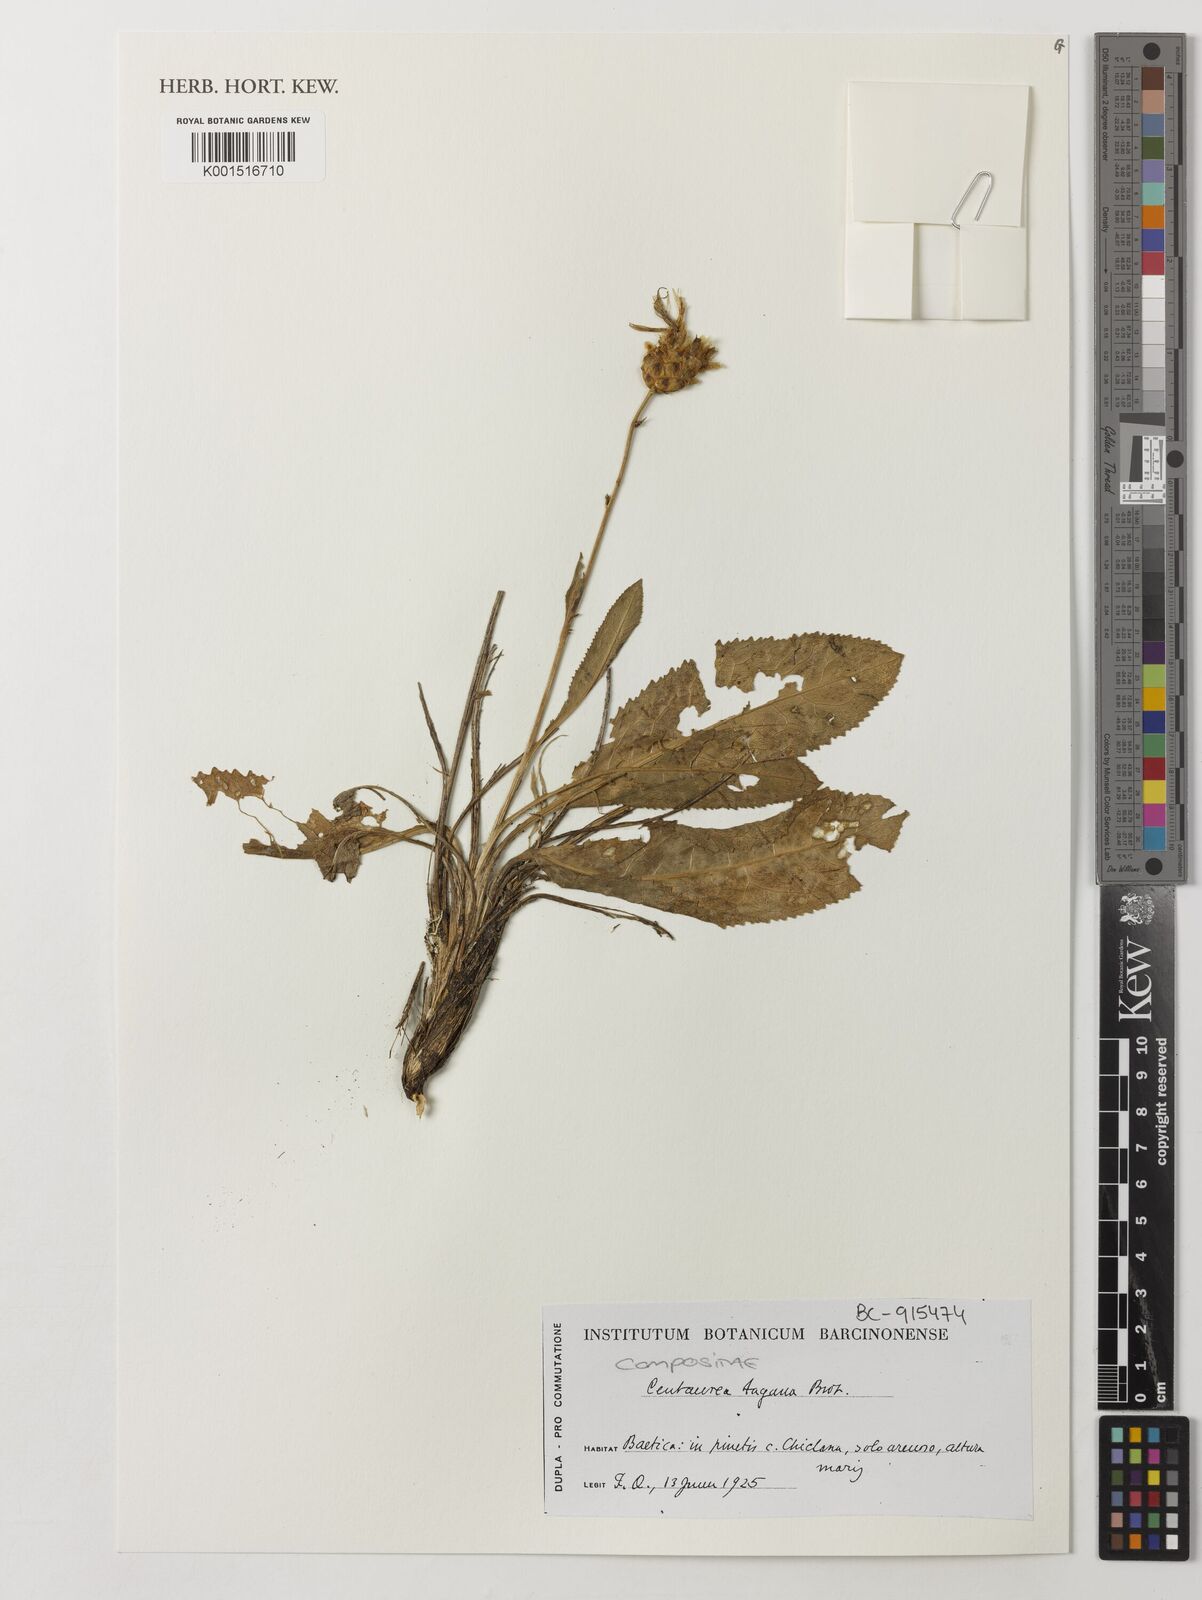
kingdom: Plantae
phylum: Tracheophyta
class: Magnoliopsida
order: Asterales
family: Asteraceae
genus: Rhaponticoides
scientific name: Rhaponticoides africana
